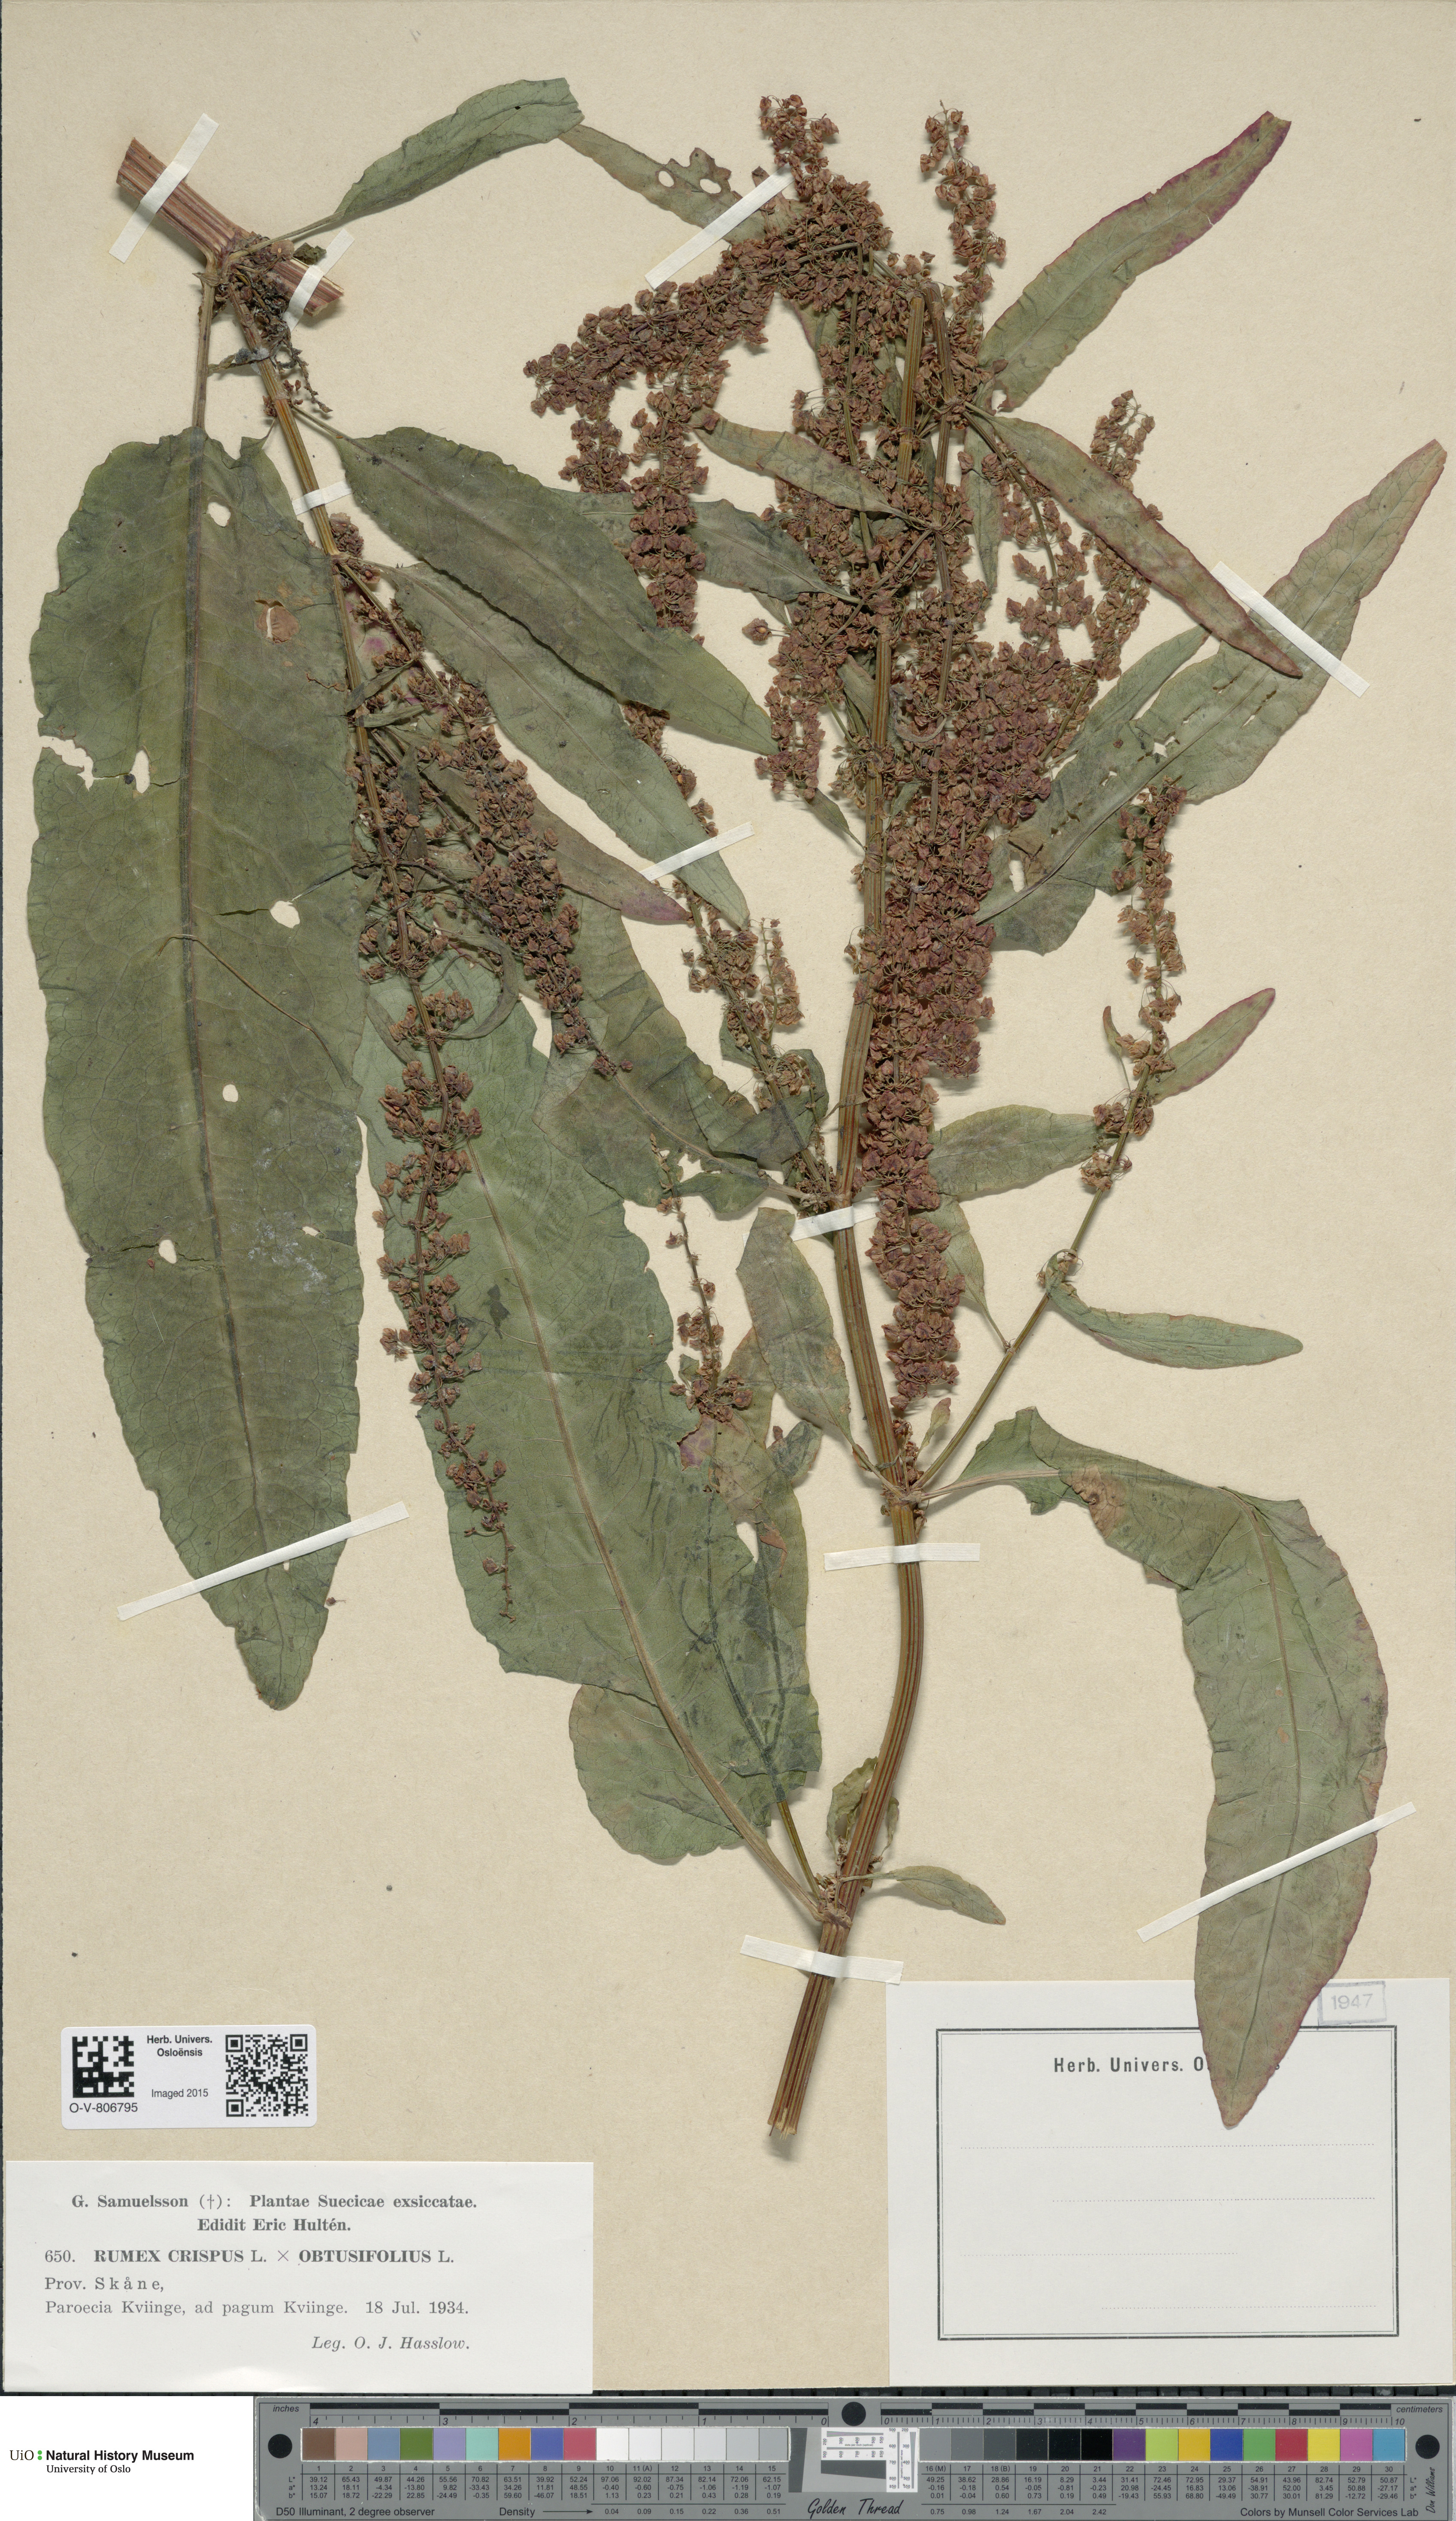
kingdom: Plantae
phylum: Tracheophyta
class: Magnoliopsida
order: Caryophyllales
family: Polygonaceae
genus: Rumex
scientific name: Rumex
